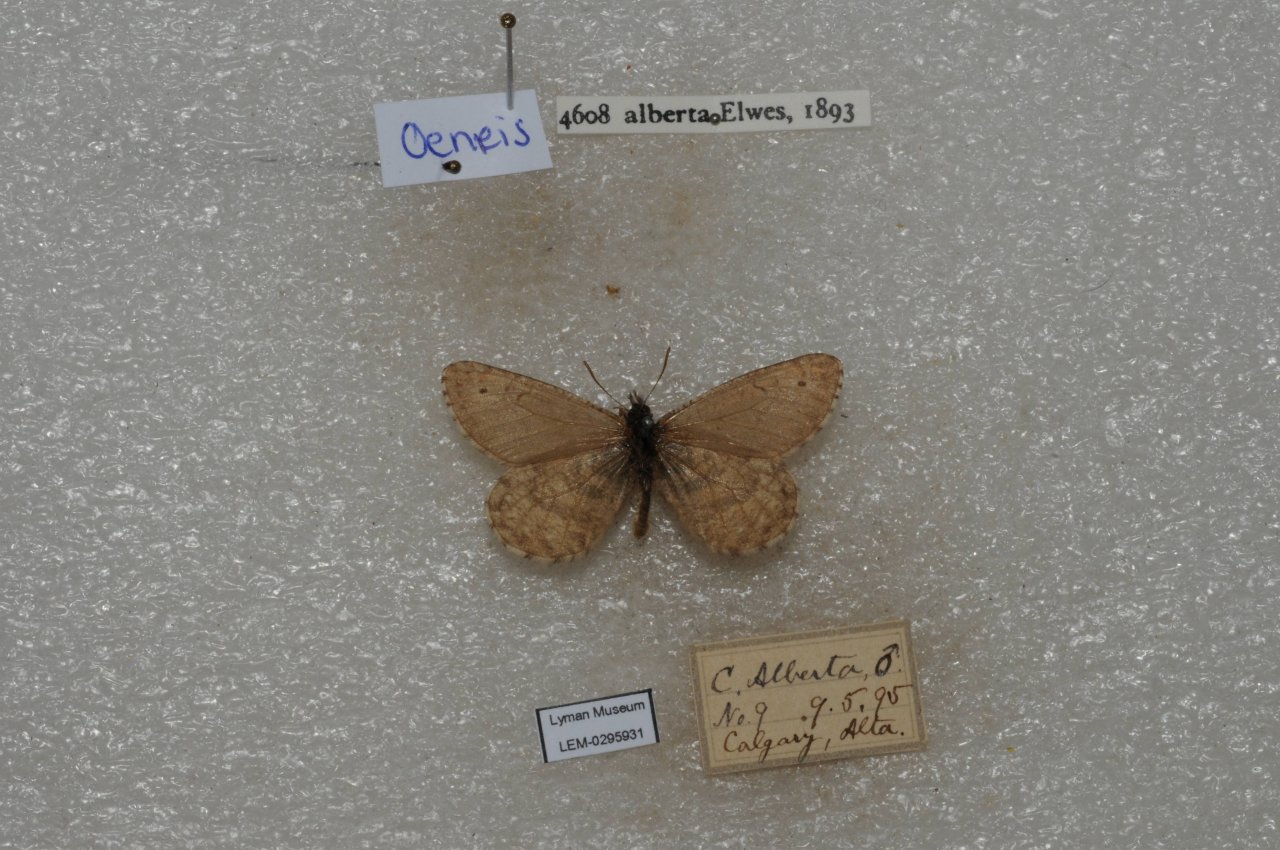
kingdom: Animalia
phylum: Arthropoda
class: Insecta
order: Lepidoptera
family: Nymphalidae
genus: Oeneis
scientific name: Oeneis alberta
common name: Alberta Arctic
